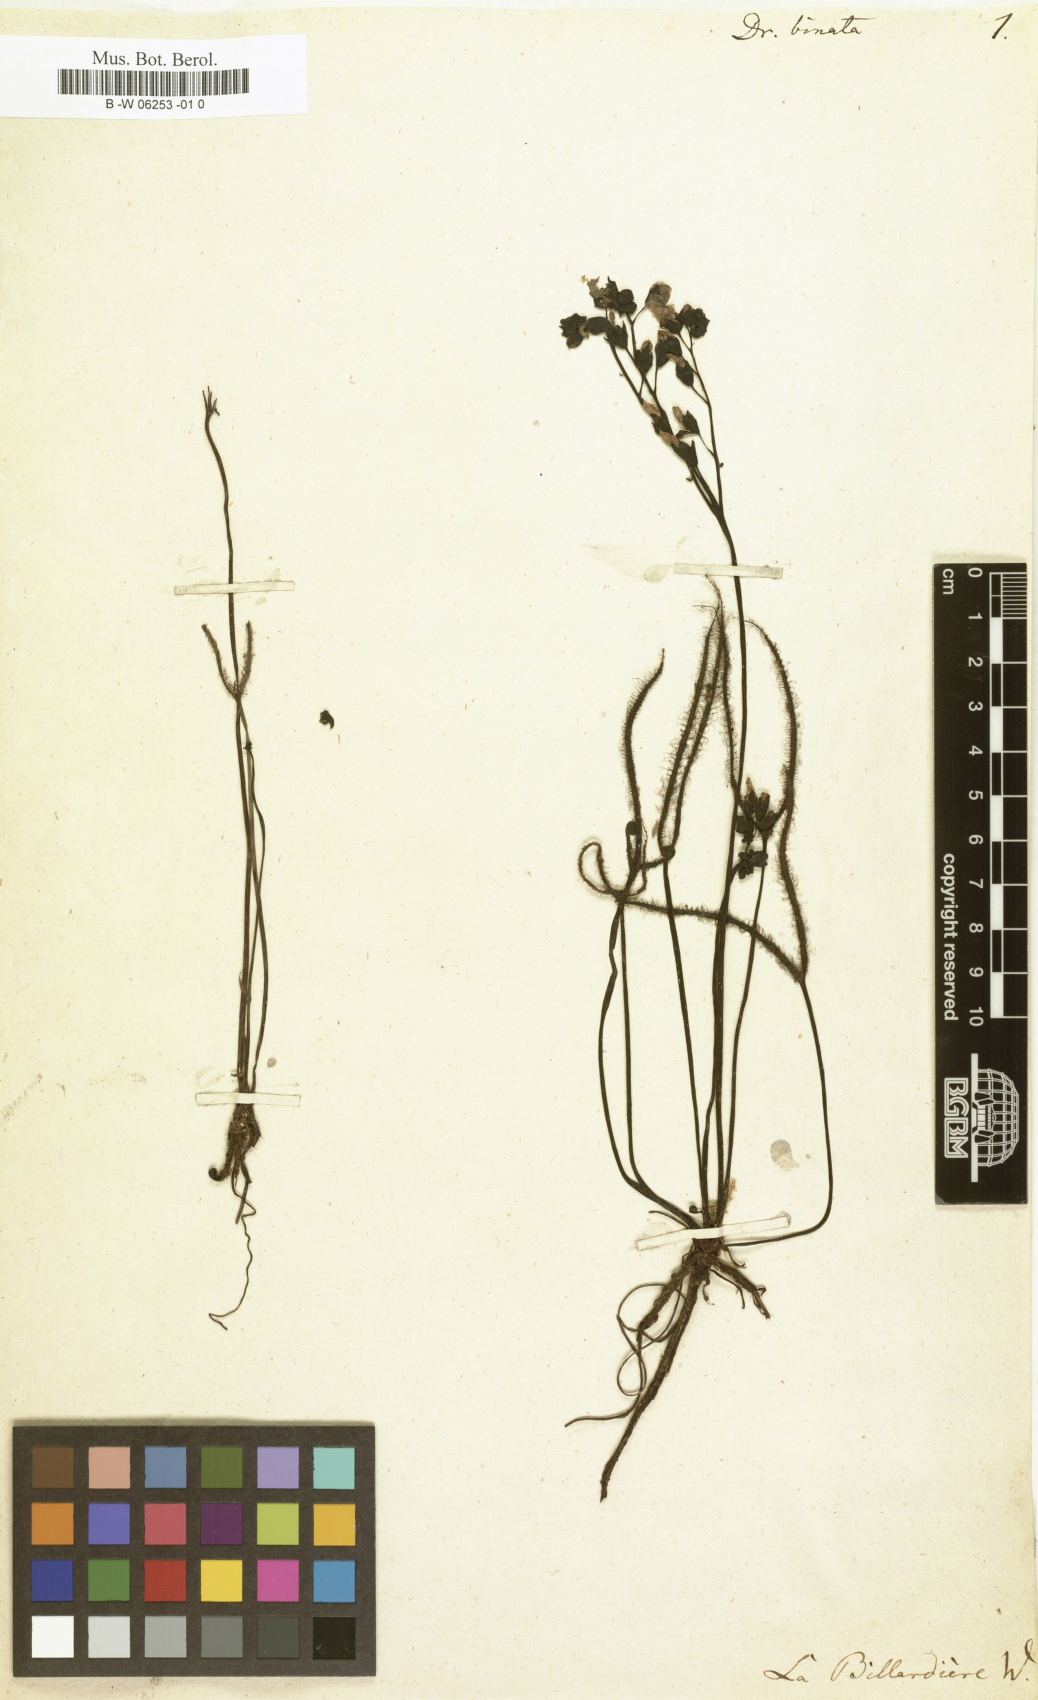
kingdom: Plantae
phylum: Tracheophyta
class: Magnoliopsida
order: Caryophyllales
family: Droseraceae
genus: Drosera
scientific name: Drosera binata
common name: Forked sundew
